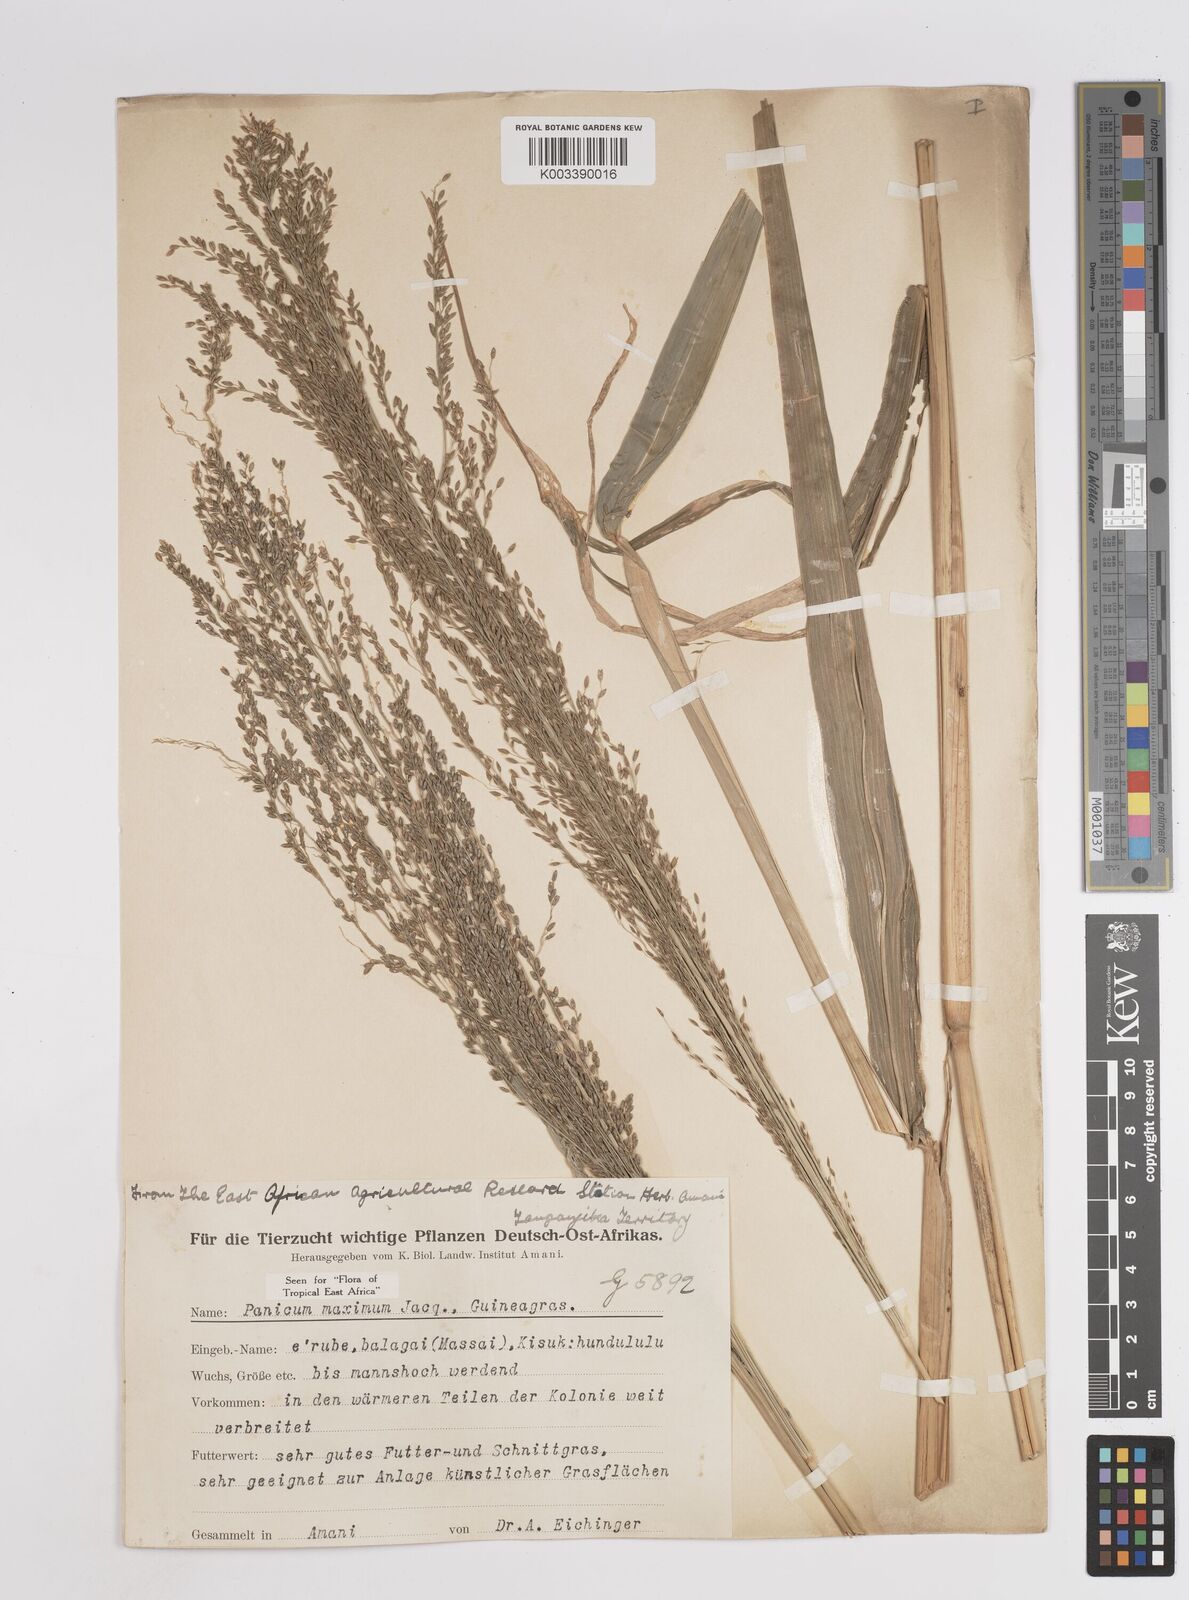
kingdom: Plantae
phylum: Tracheophyta
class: Liliopsida
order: Poales
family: Poaceae
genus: Megathyrsus
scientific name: Megathyrsus maximus
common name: Guineagrass
